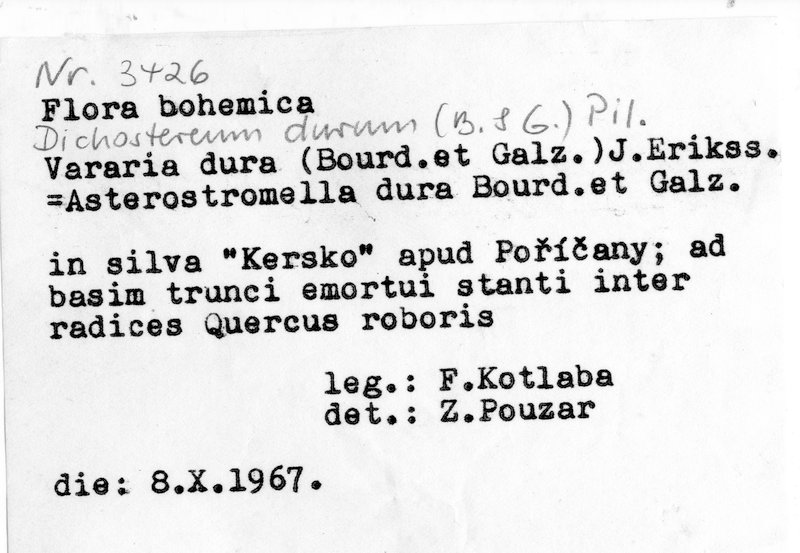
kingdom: Plantae
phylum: Tracheophyta
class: Magnoliopsida
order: Fagales
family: Fagaceae
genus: Quercus
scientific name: Quercus robur
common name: Pedunculate oak
